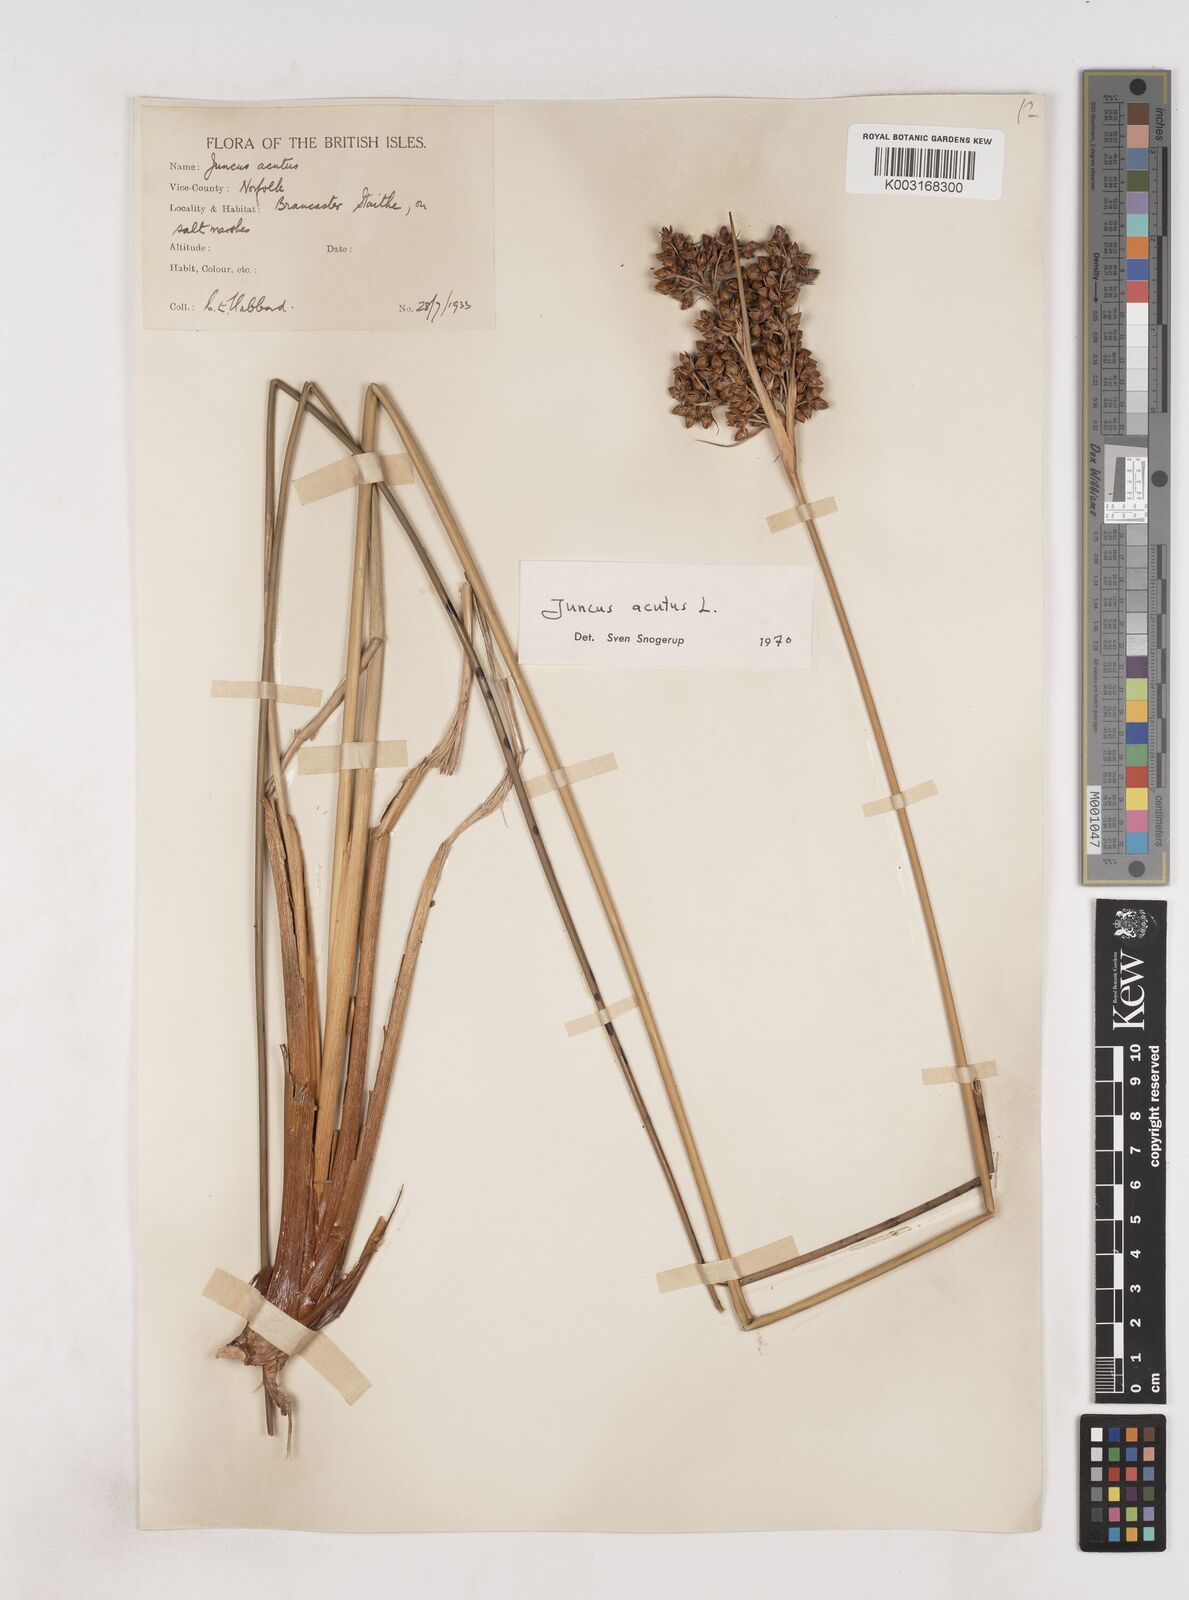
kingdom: Plantae
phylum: Tracheophyta
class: Liliopsida
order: Poales
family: Juncaceae
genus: Juncus
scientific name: Juncus acutus
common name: Sharp rush
